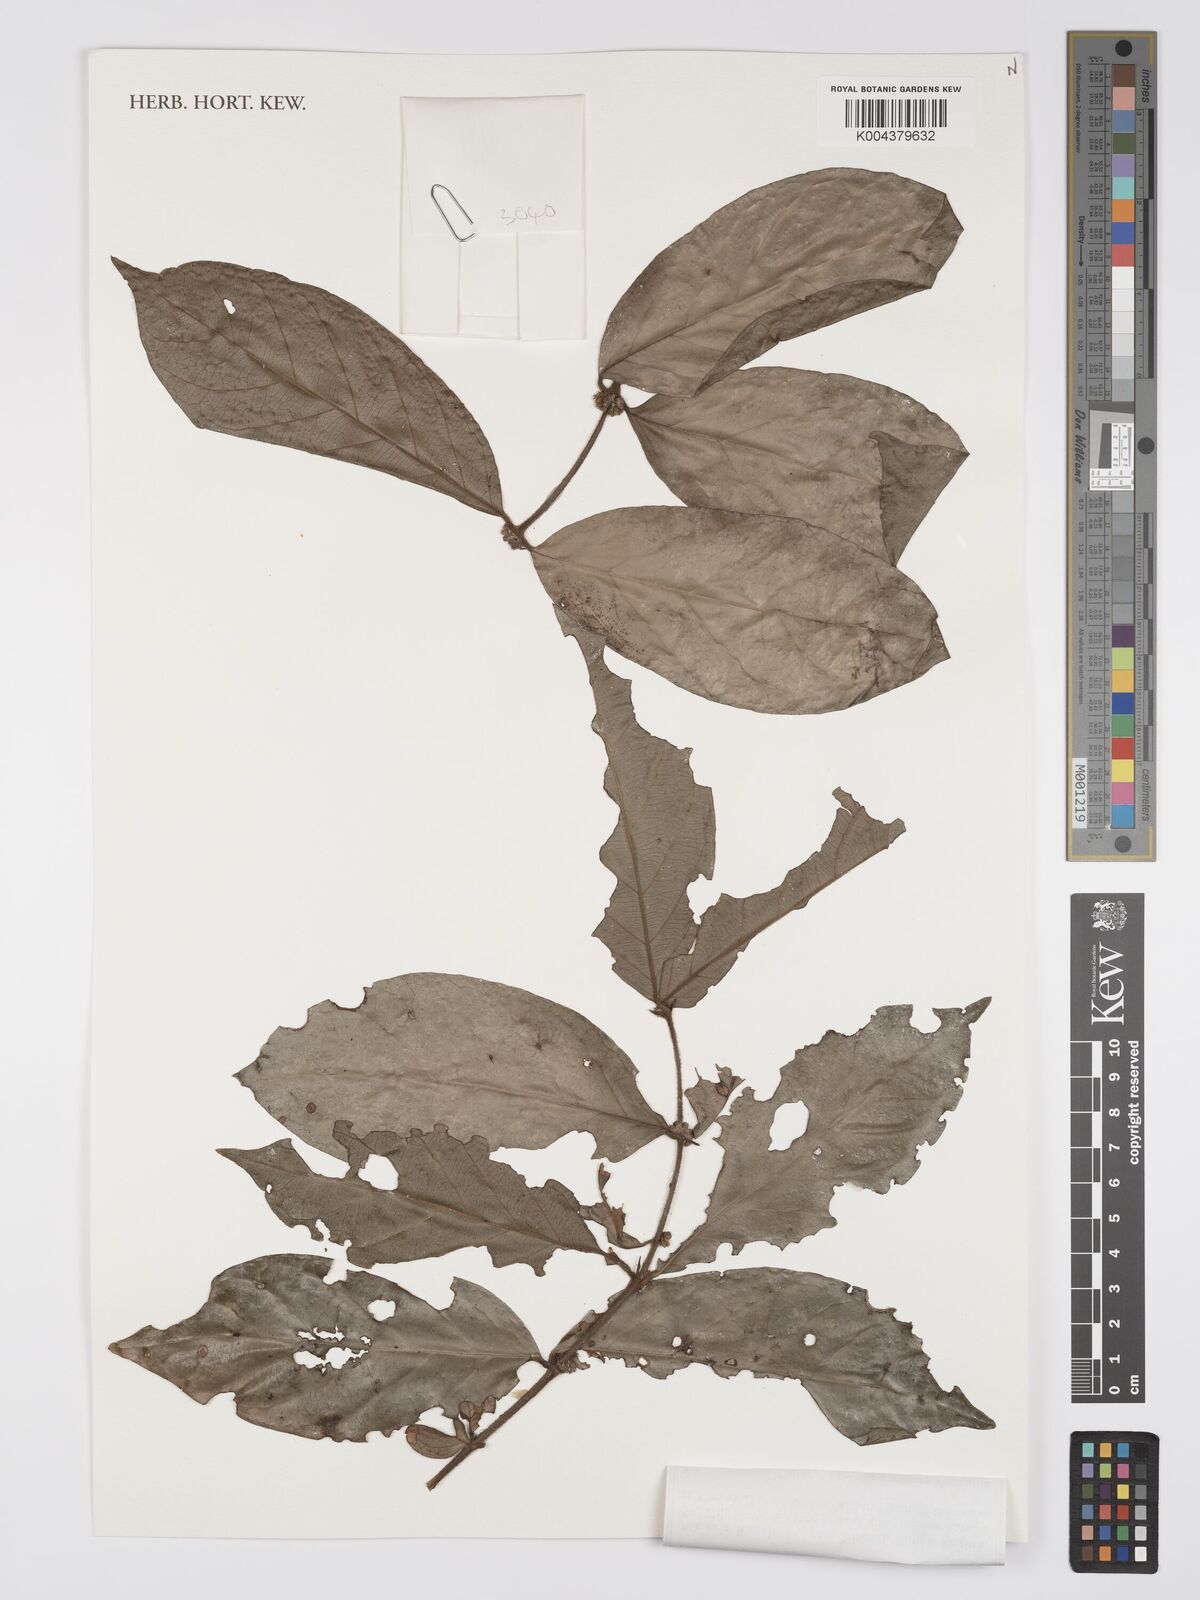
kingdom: Plantae
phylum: Tracheophyta
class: Magnoliopsida
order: Gentianales
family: Rubiaceae
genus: Cremaspora
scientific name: Cremaspora triflora
